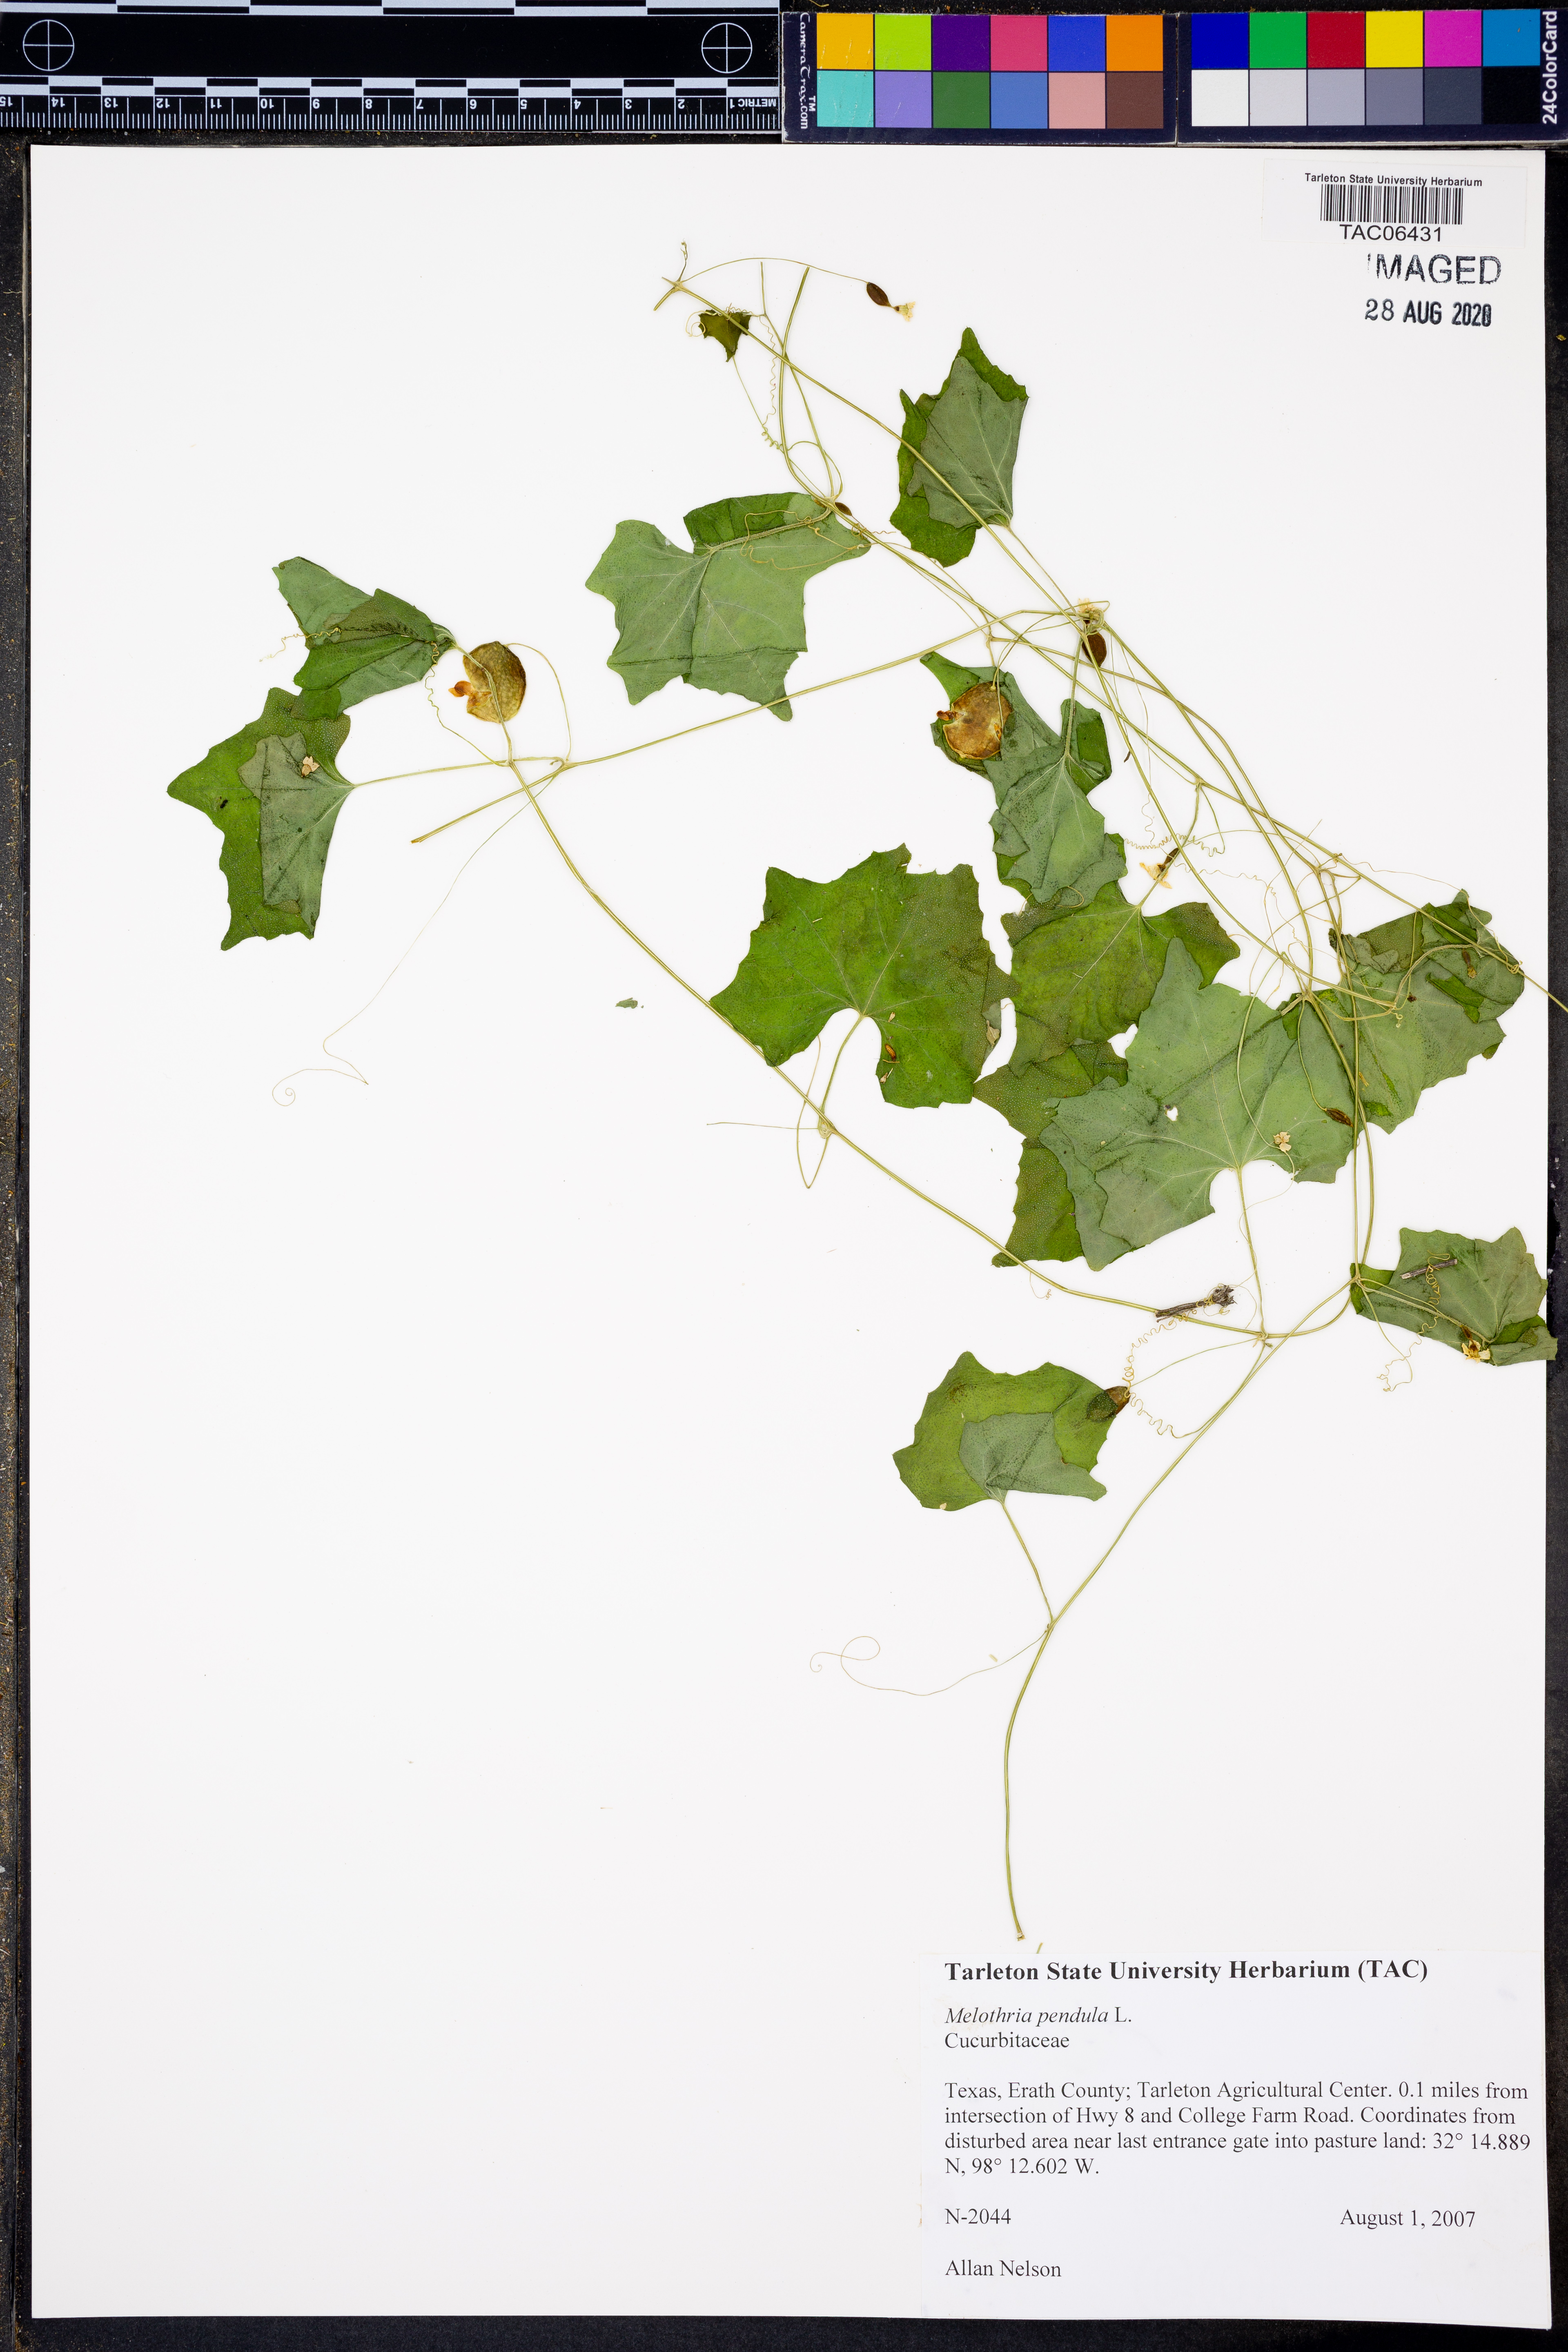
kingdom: Plantae
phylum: Tracheophyta
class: Magnoliopsida
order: Cucurbitales
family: Cucurbitaceae
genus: Melothria
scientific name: Melothria pendula
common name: Creeping-cucumber
